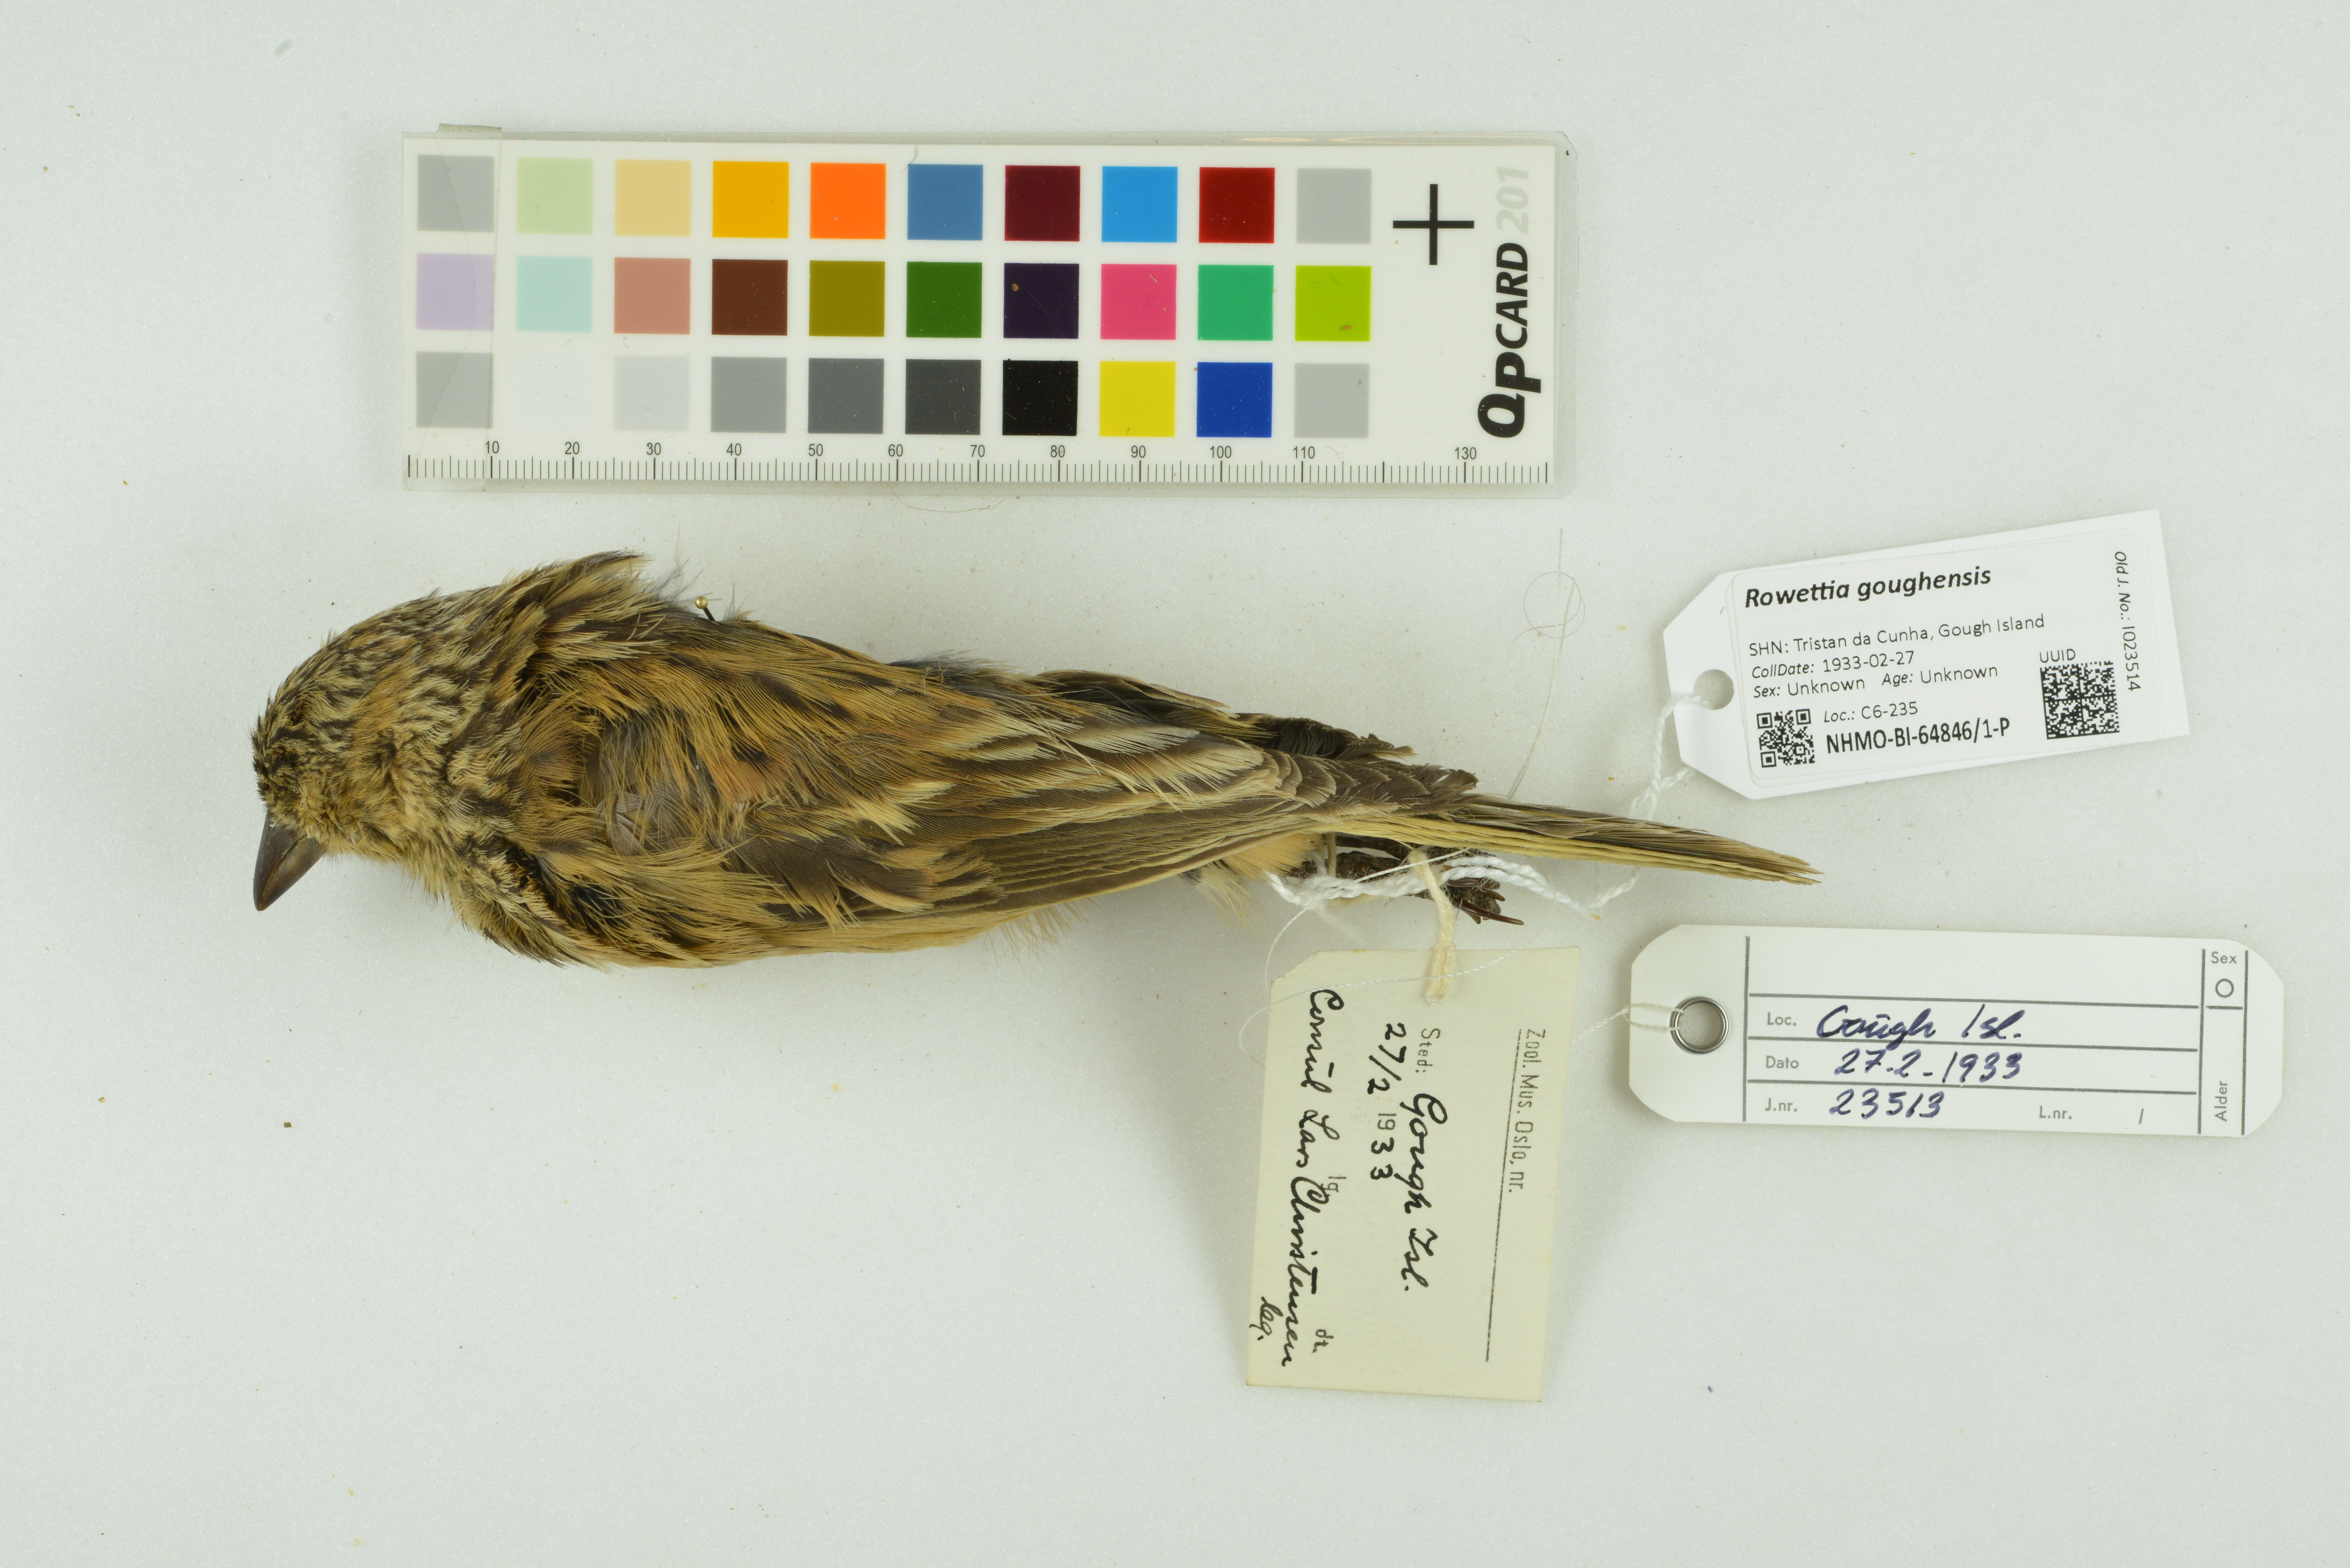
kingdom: Animalia
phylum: Chordata
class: Aves
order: Passeriformes
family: Thraupidae
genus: Rowettia
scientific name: Rowettia goughensis
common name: Gough finch
